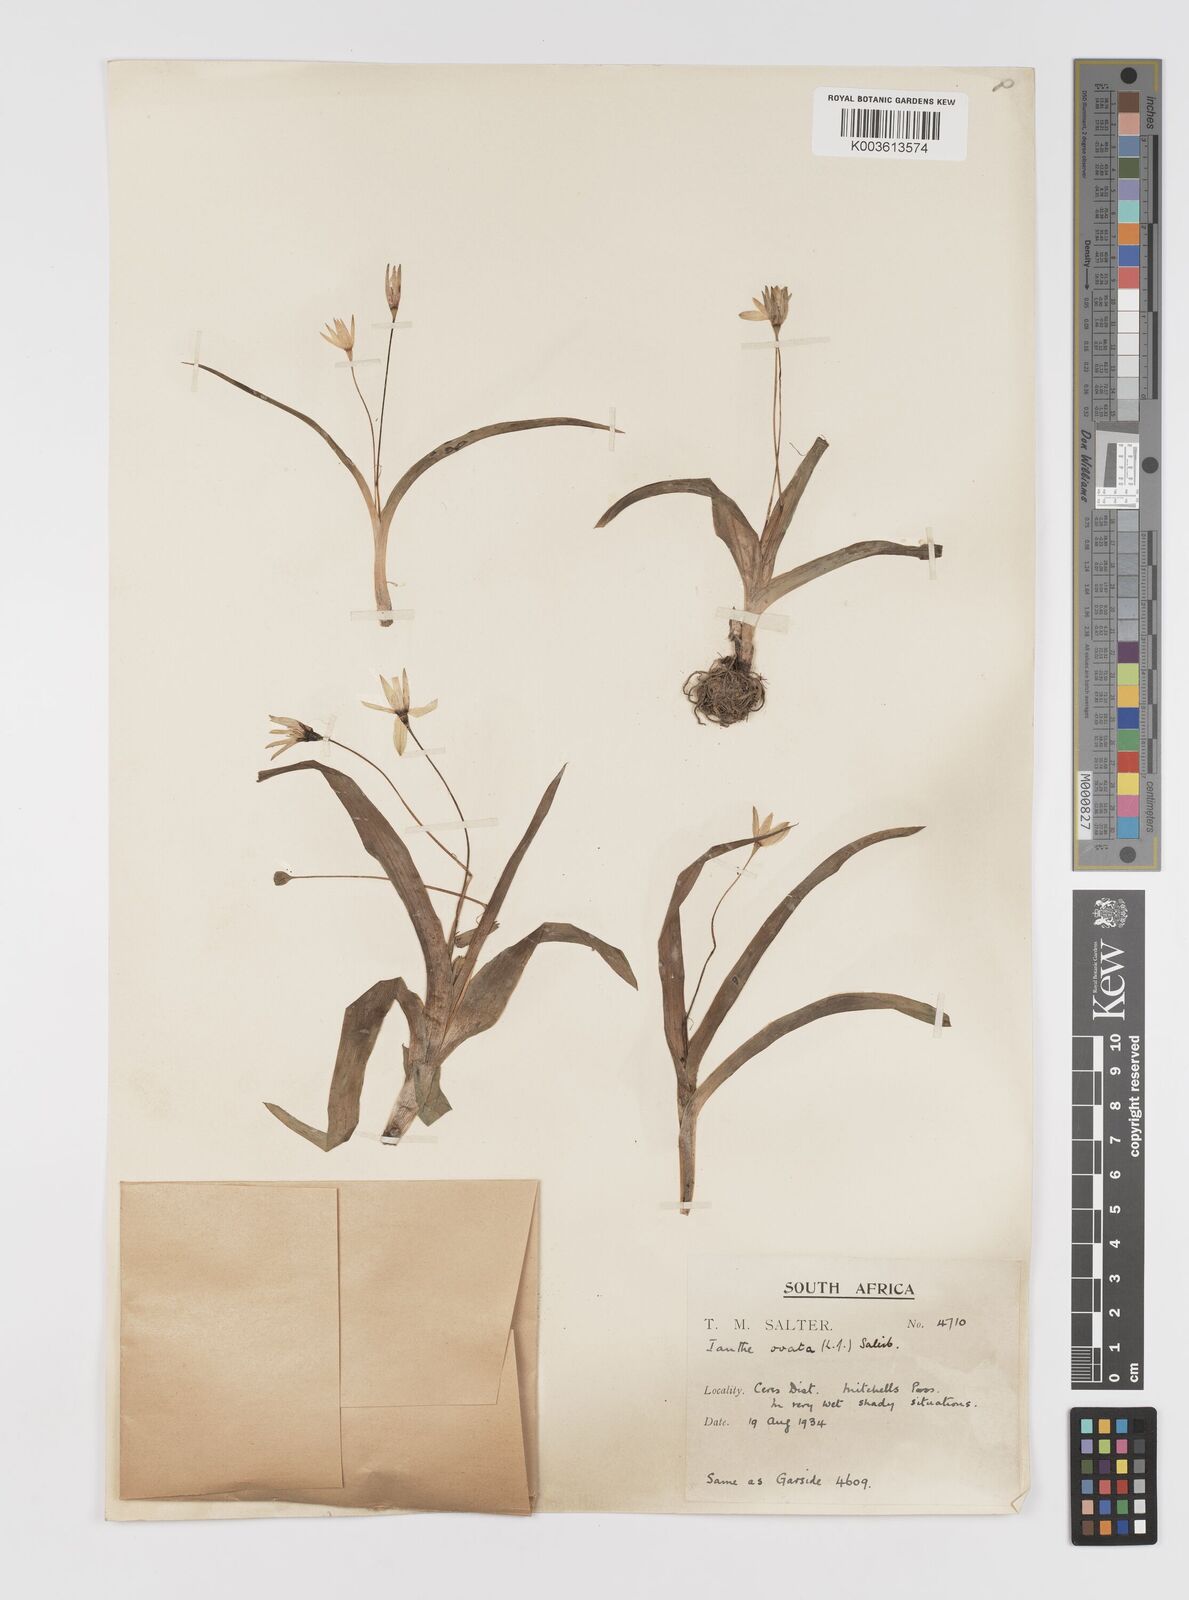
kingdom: Plantae
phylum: Tracheophyta
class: Liliopsida
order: Asparagales
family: Hypoxidaceae
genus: Pauridia
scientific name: Pauridia ovata
